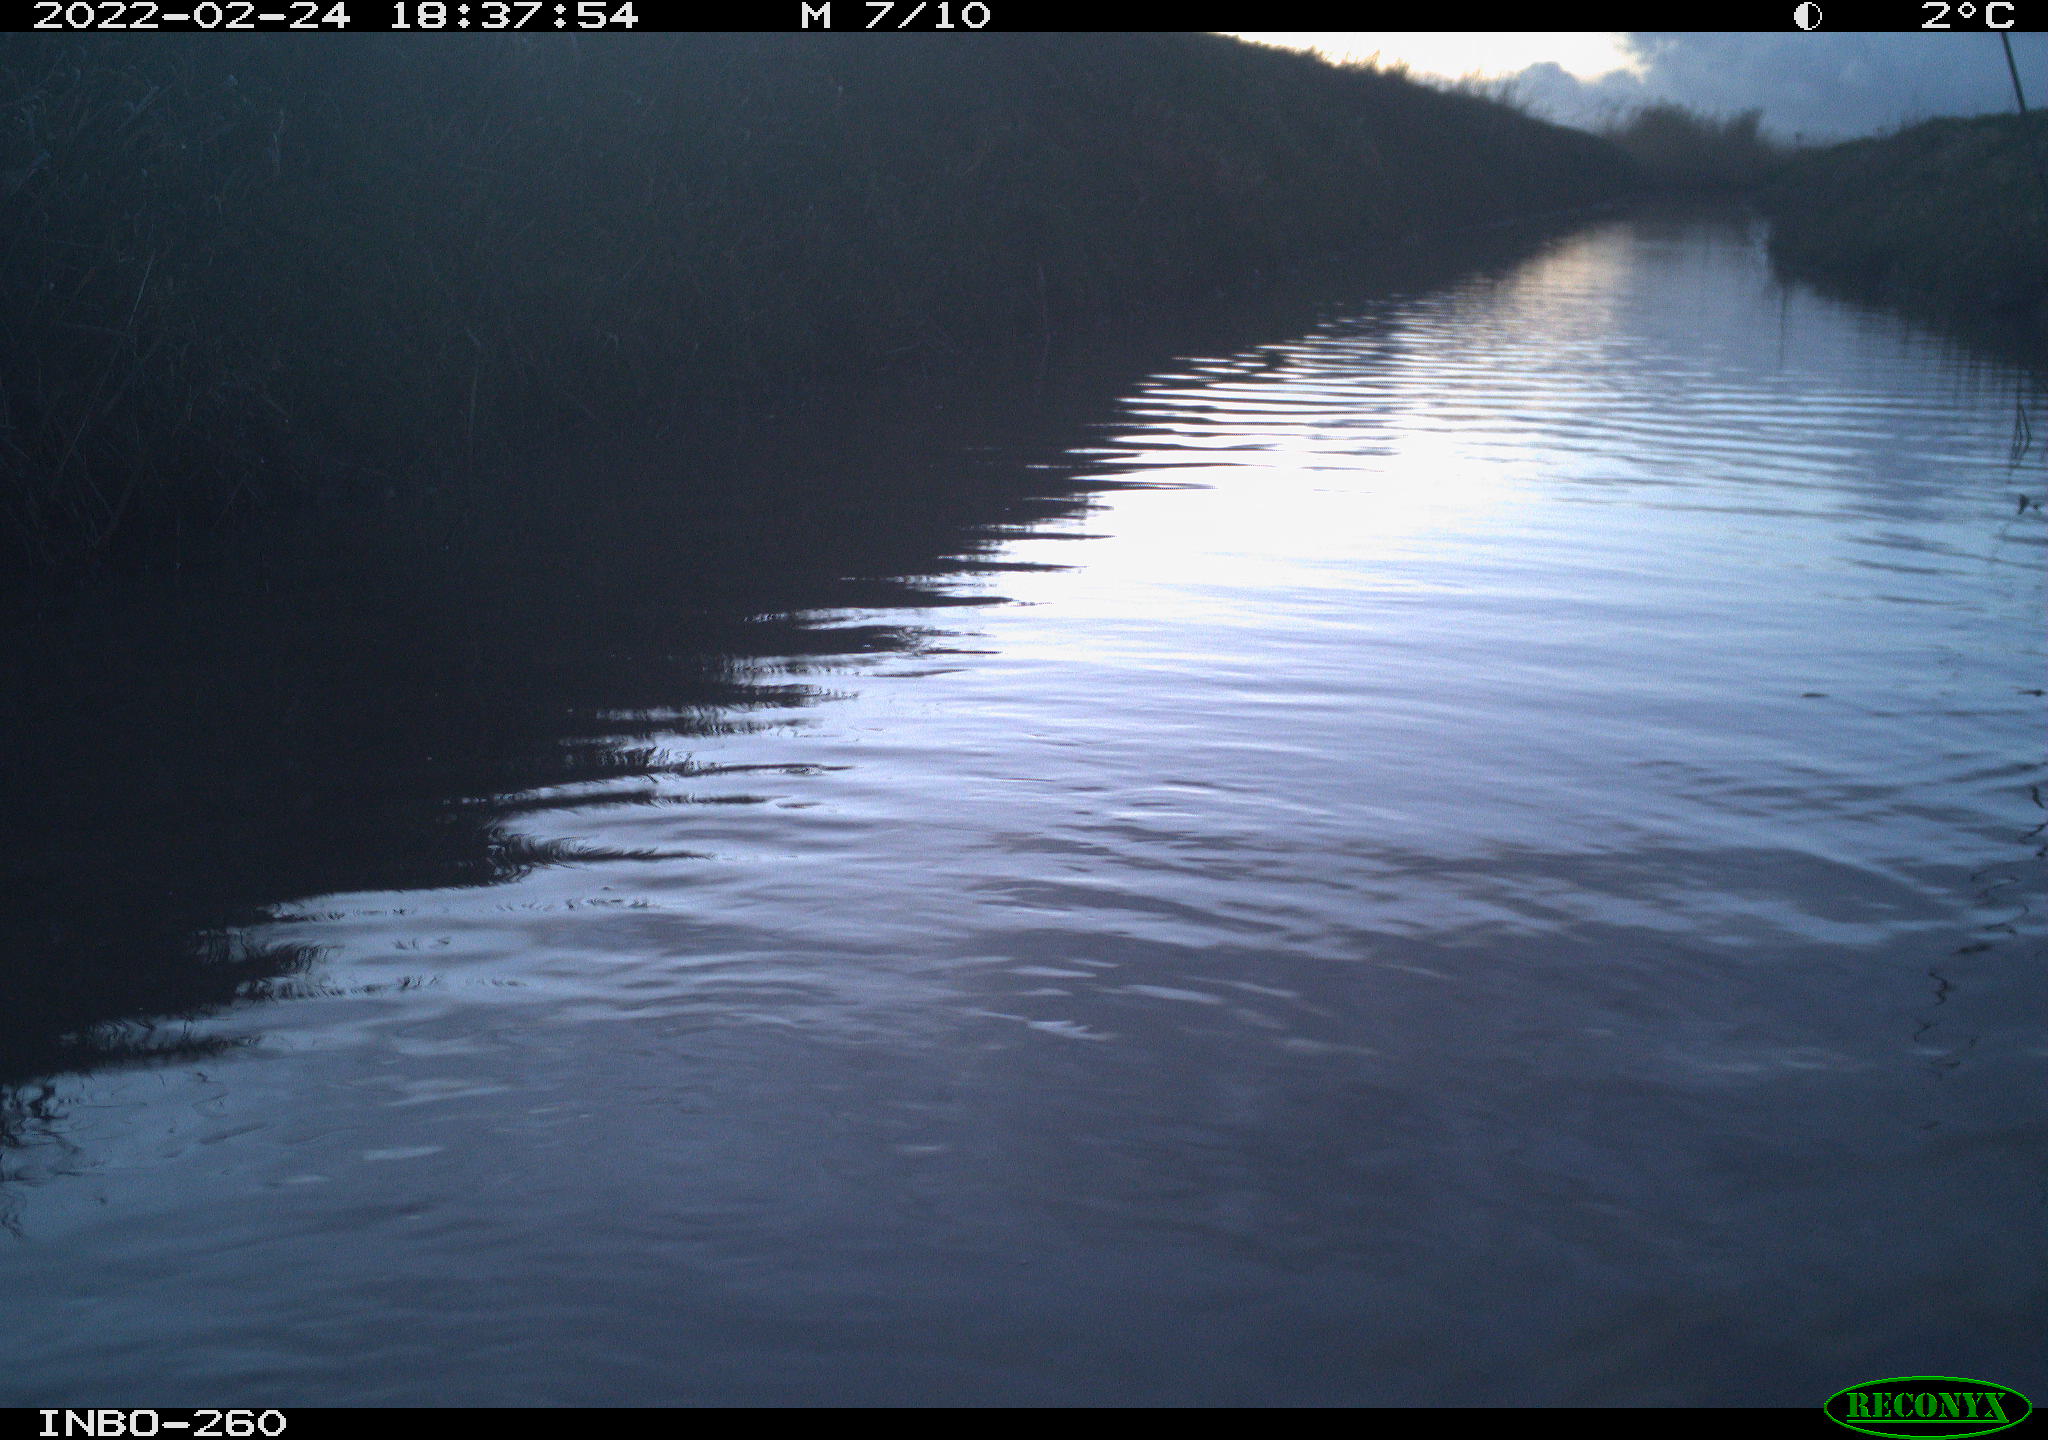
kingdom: Animalia
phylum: Chordata
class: Mammalia
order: Rodentia
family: Cricetidae
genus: Ondatra
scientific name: Ondatra zibethicus
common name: Muskrat
